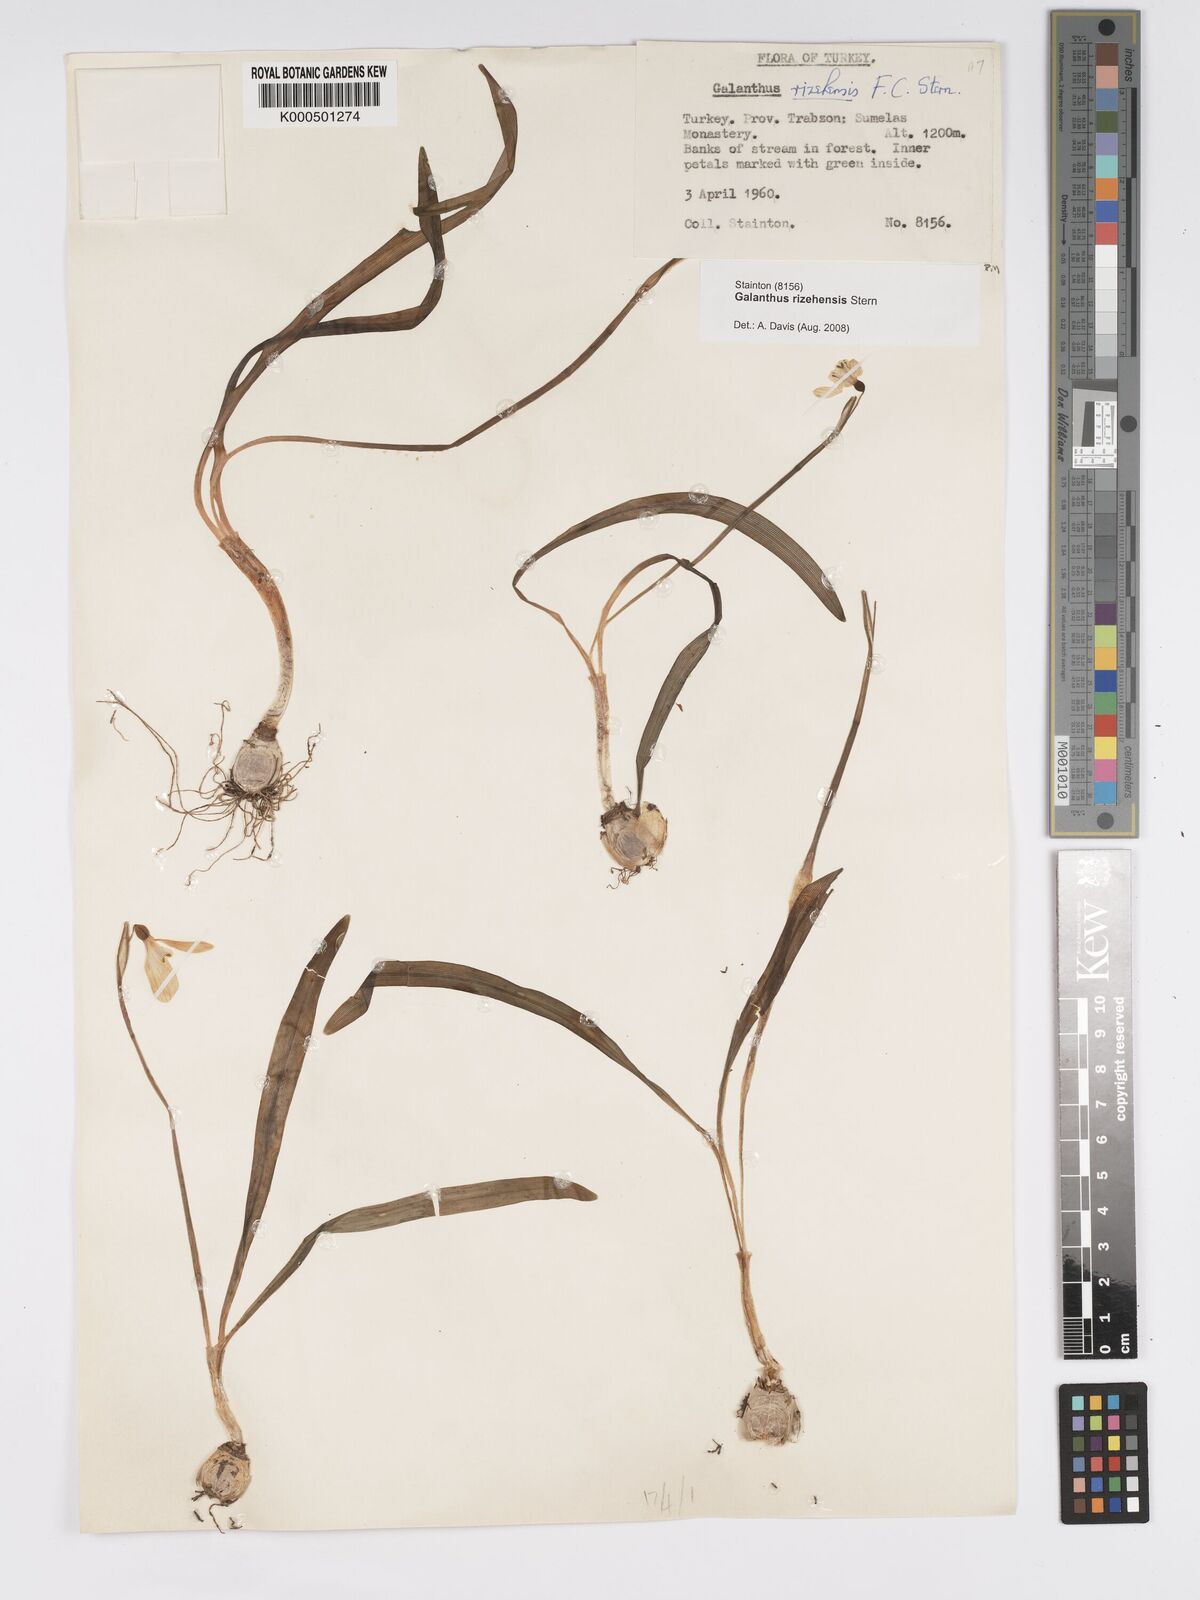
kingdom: Plantae
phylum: Tracheophyta
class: Liliopsida
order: Asparagales
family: Amaryllidaceae
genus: Galanthus
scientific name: Galanthus rizehensis
